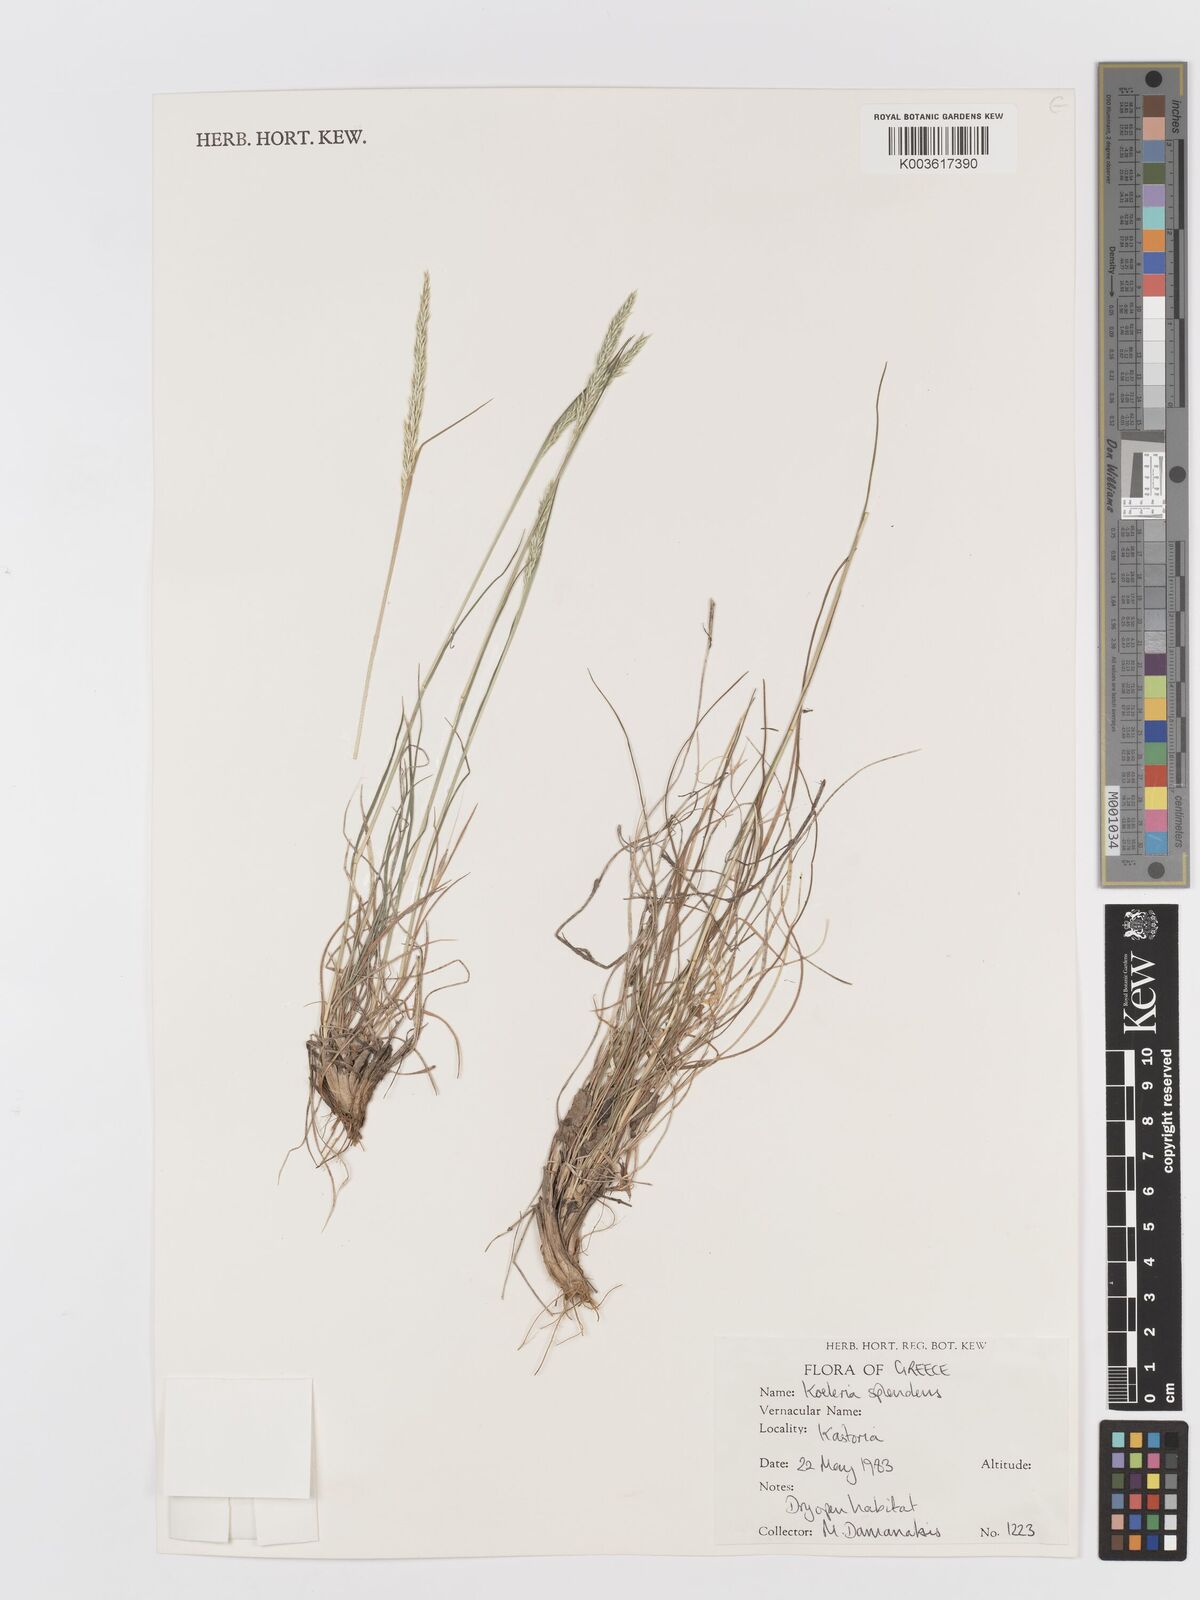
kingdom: Plantae
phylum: Tracheophyta
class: Liliopsida
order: Poales
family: Poaceae
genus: Koeleria
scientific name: Koeleria splendens
